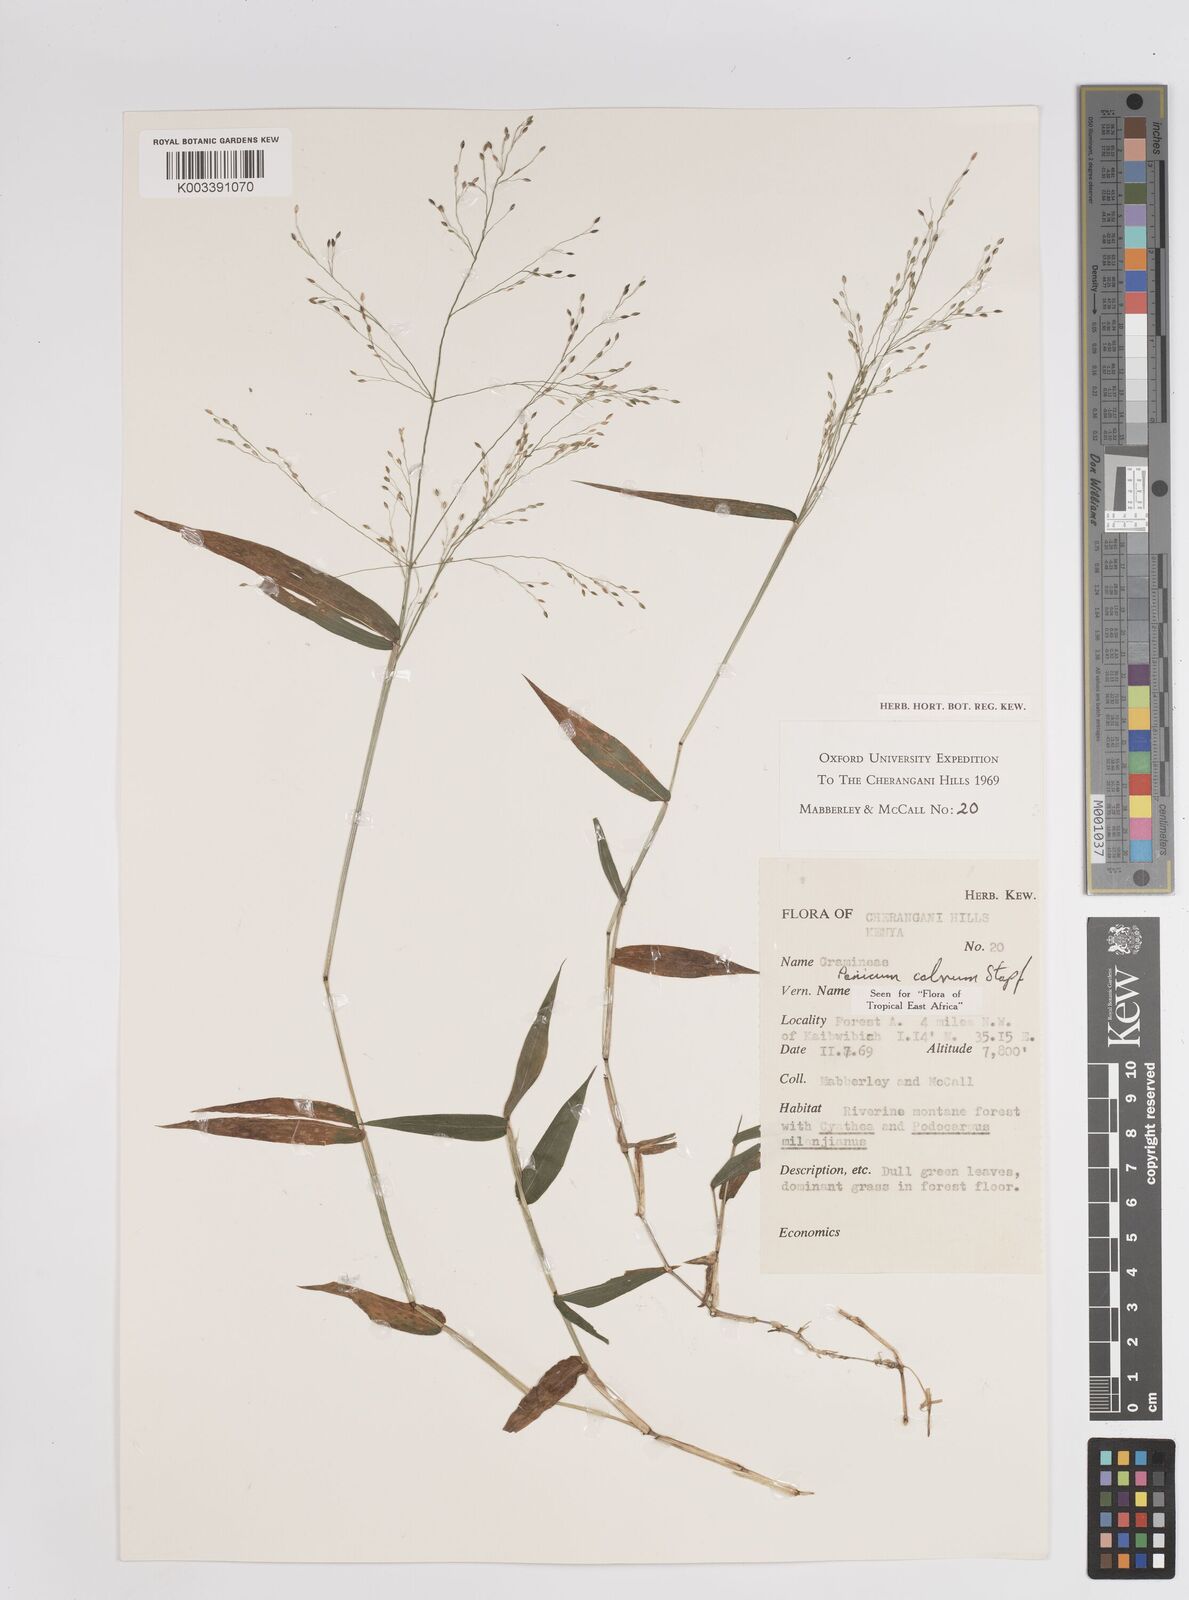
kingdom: Plantae
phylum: Tracheophyta
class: Liliopsida
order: Poales
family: Poaceae
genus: Panicum
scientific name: Panicum calvum
